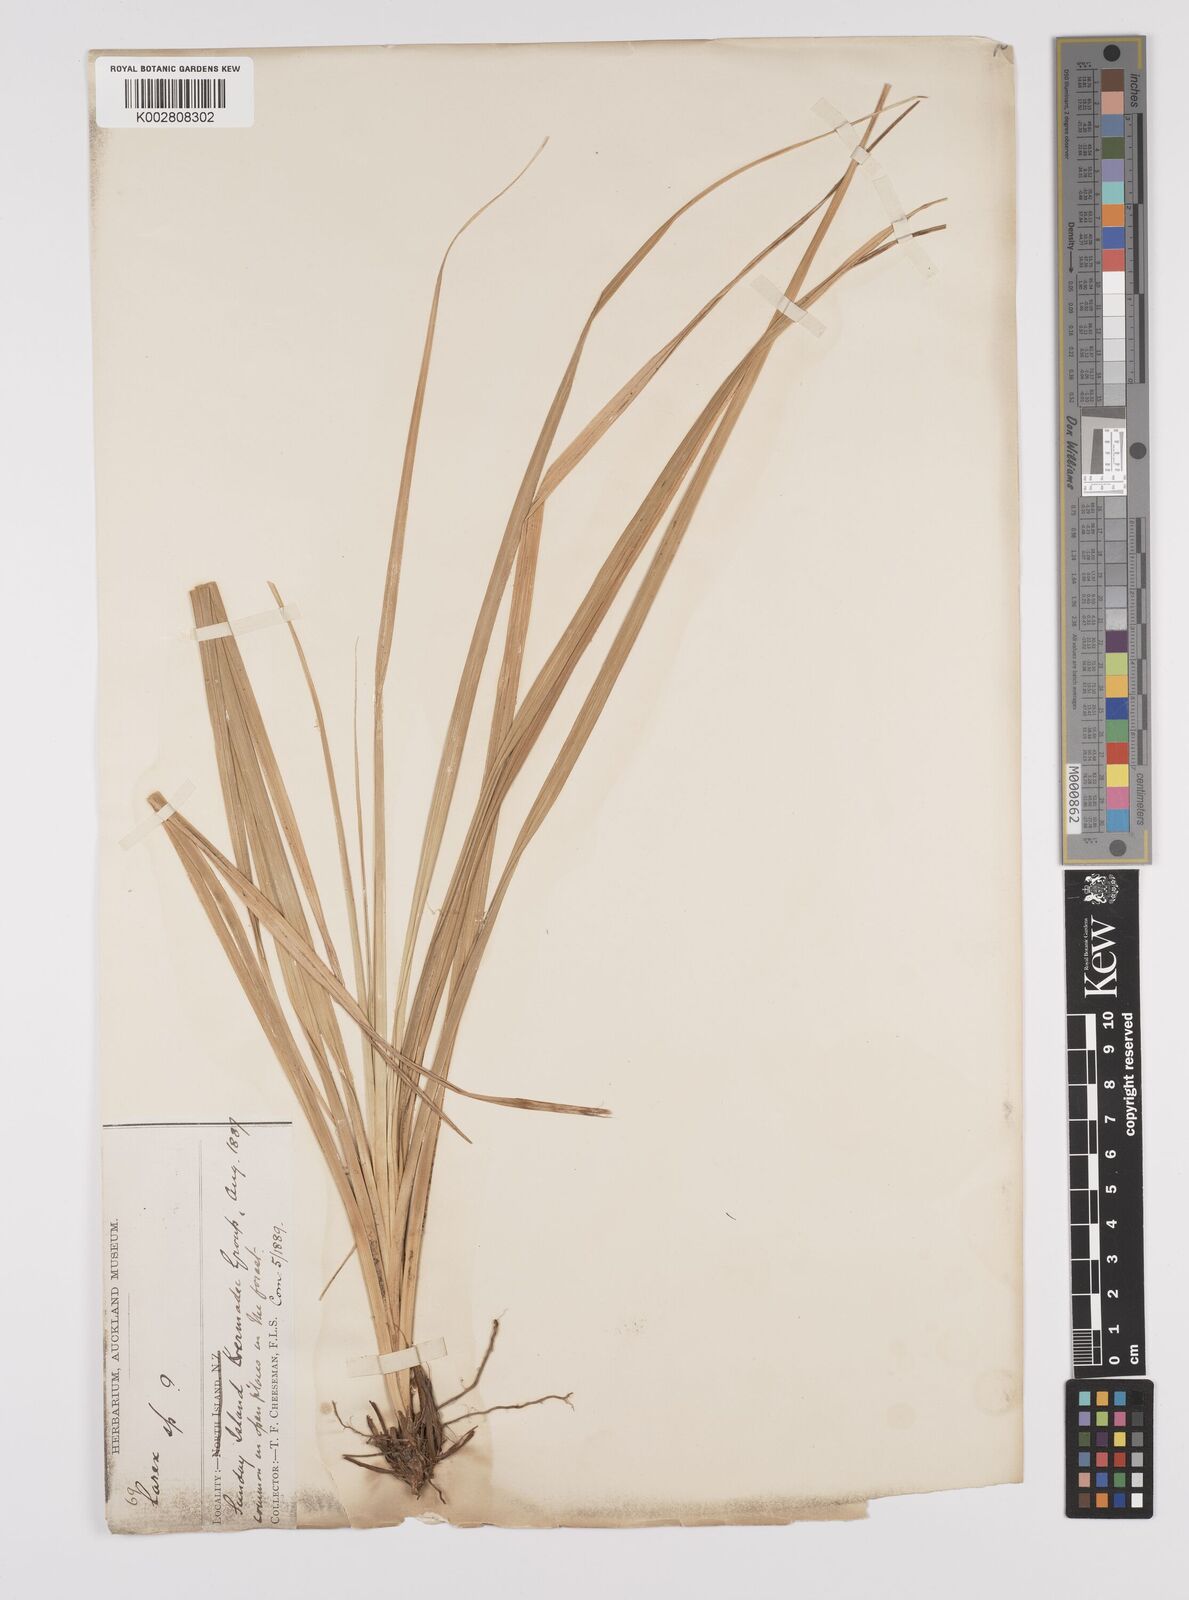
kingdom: Plantae
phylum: Tracheophyta
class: Liliopsida
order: Poales
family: Cyperaceae
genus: Carex
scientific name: Carex appressa
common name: Tussock sedge
